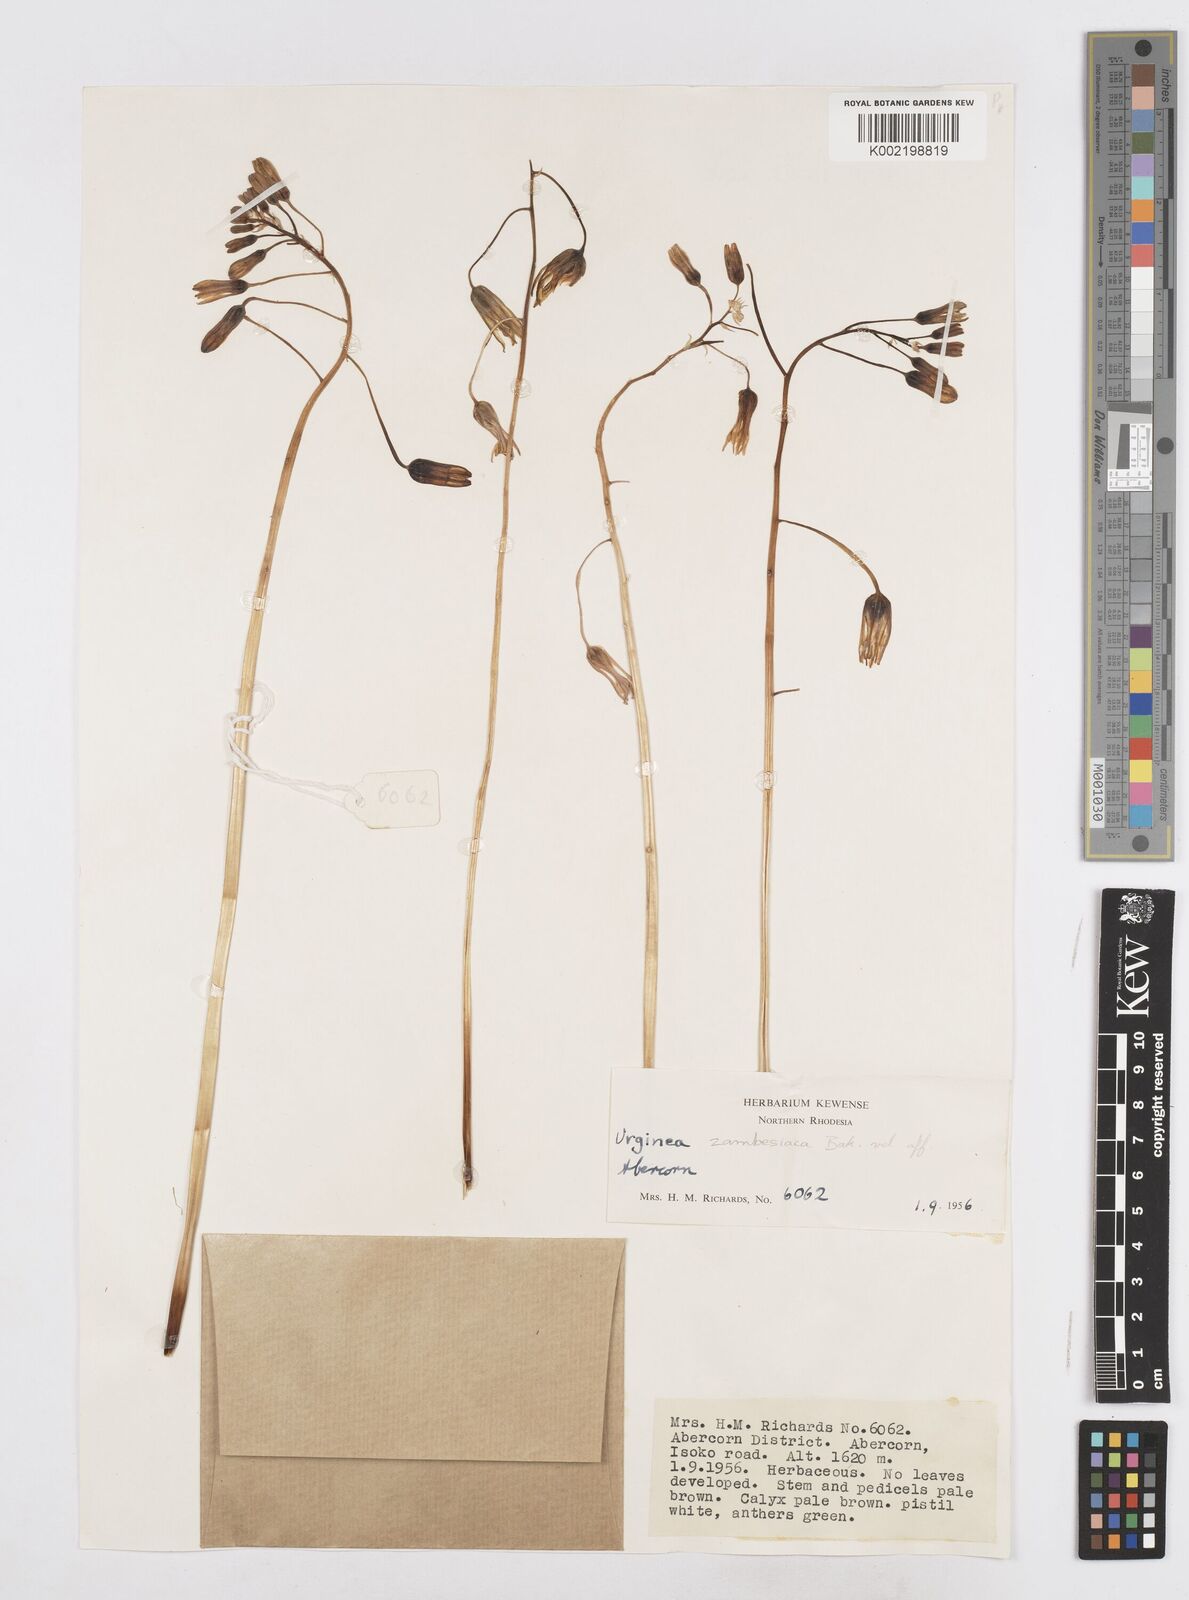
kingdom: Plantae
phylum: Tracheophyta
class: Liliopsida
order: Asparagales
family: Asparagaceae
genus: Drimia
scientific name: Drimia indica
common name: Indian-squill
